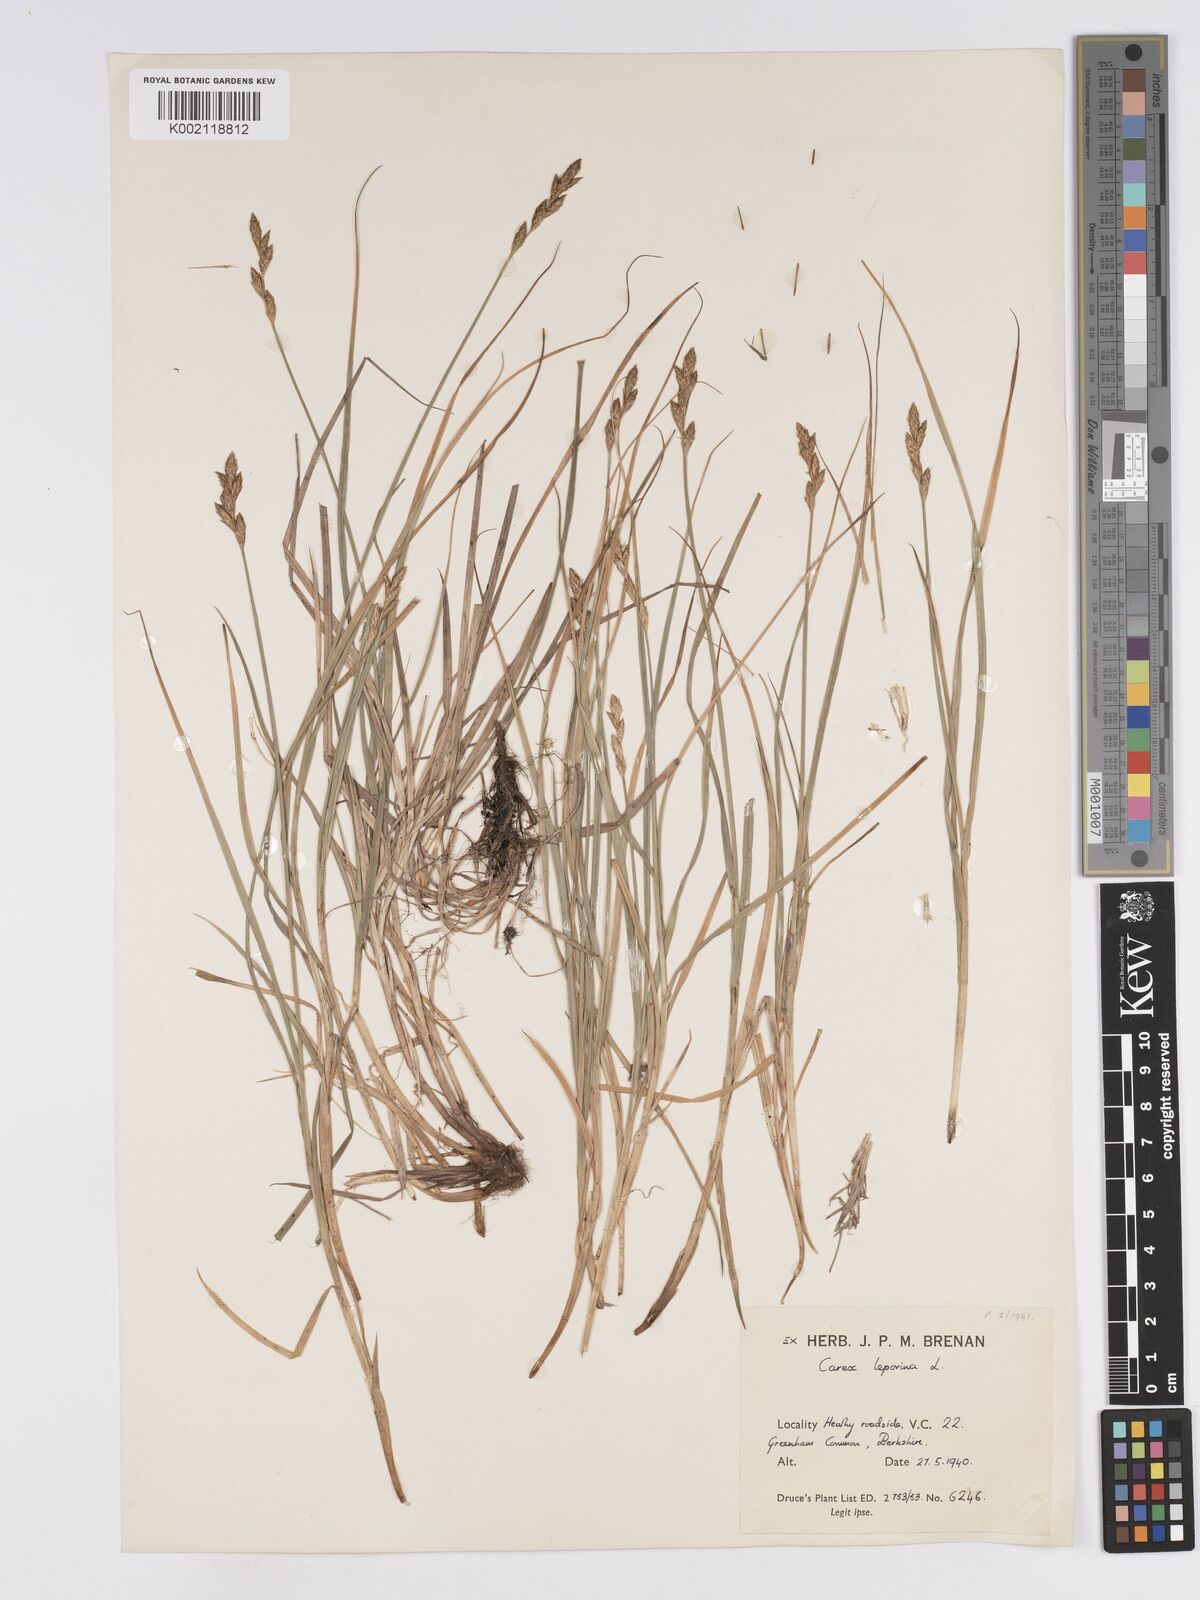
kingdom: Plantae
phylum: Tracheophyta
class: Liliopsida
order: Poales
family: Cyperaceae
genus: Carex
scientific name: Carex leporina
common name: Oval sedge
